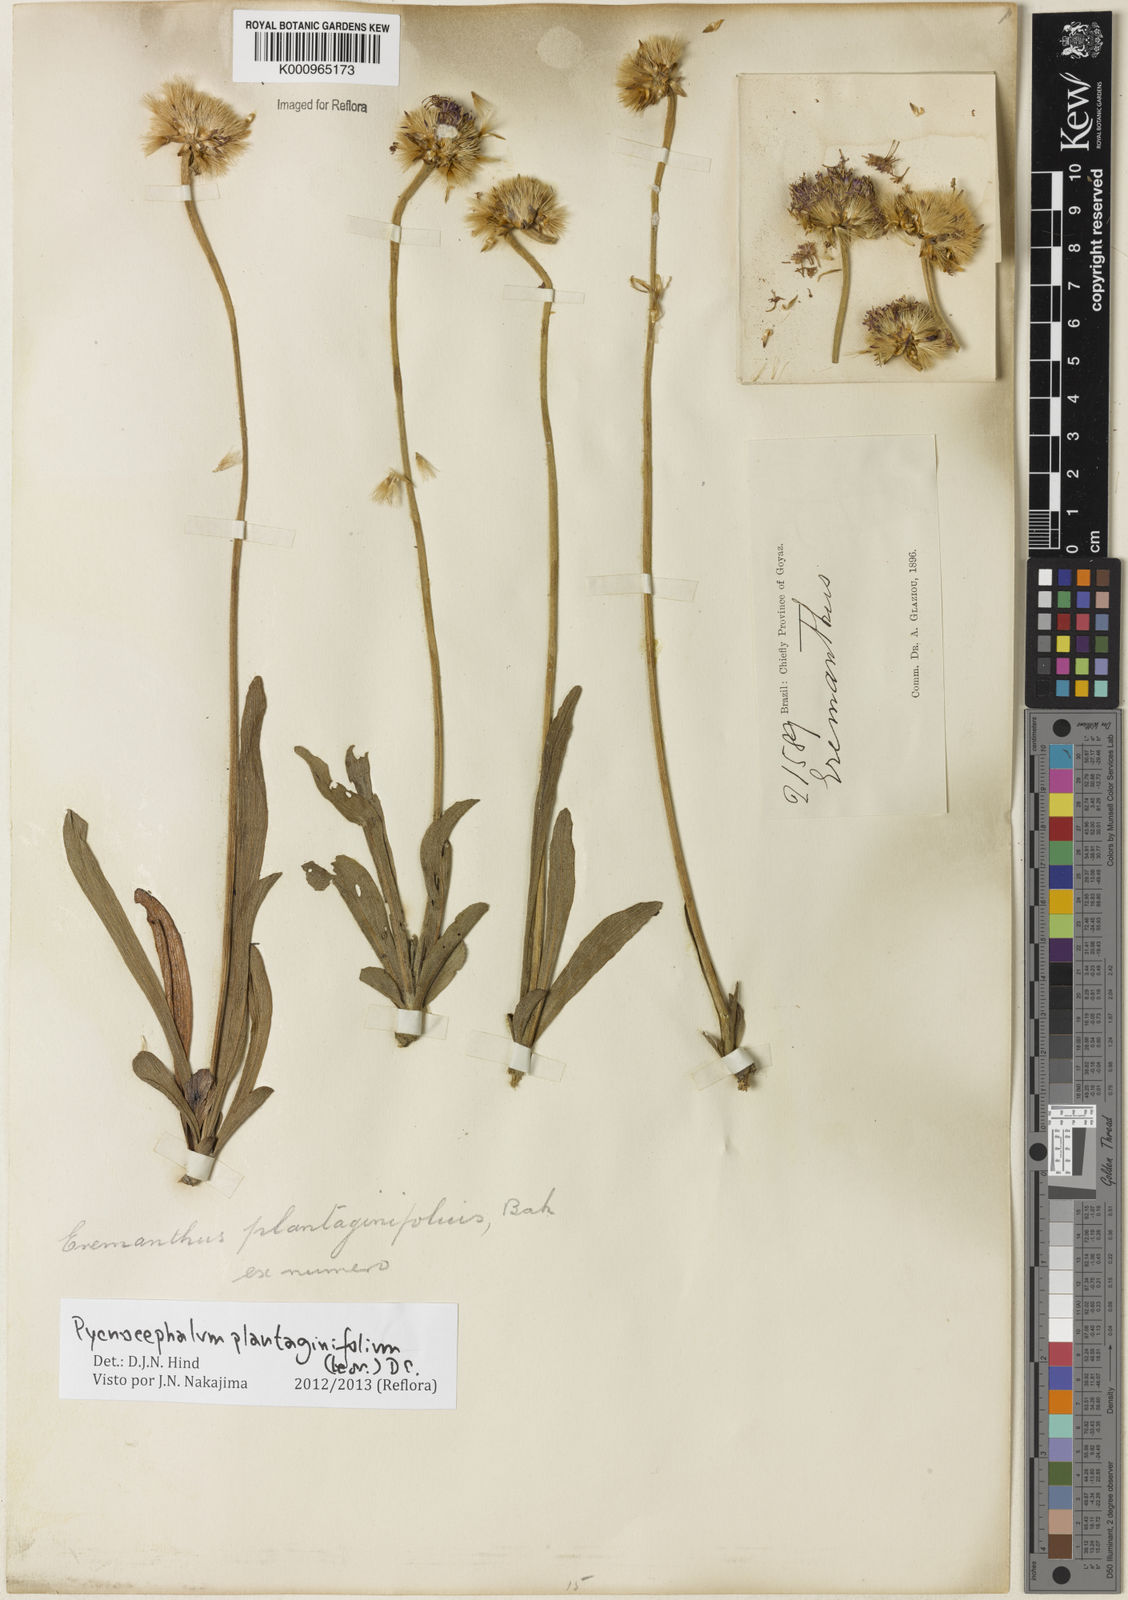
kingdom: Plantae
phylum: Tracheophyta
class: Magnoliopsida
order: Asterales
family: Asteraceae
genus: Chresta
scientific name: Chresta plantaginifolia
